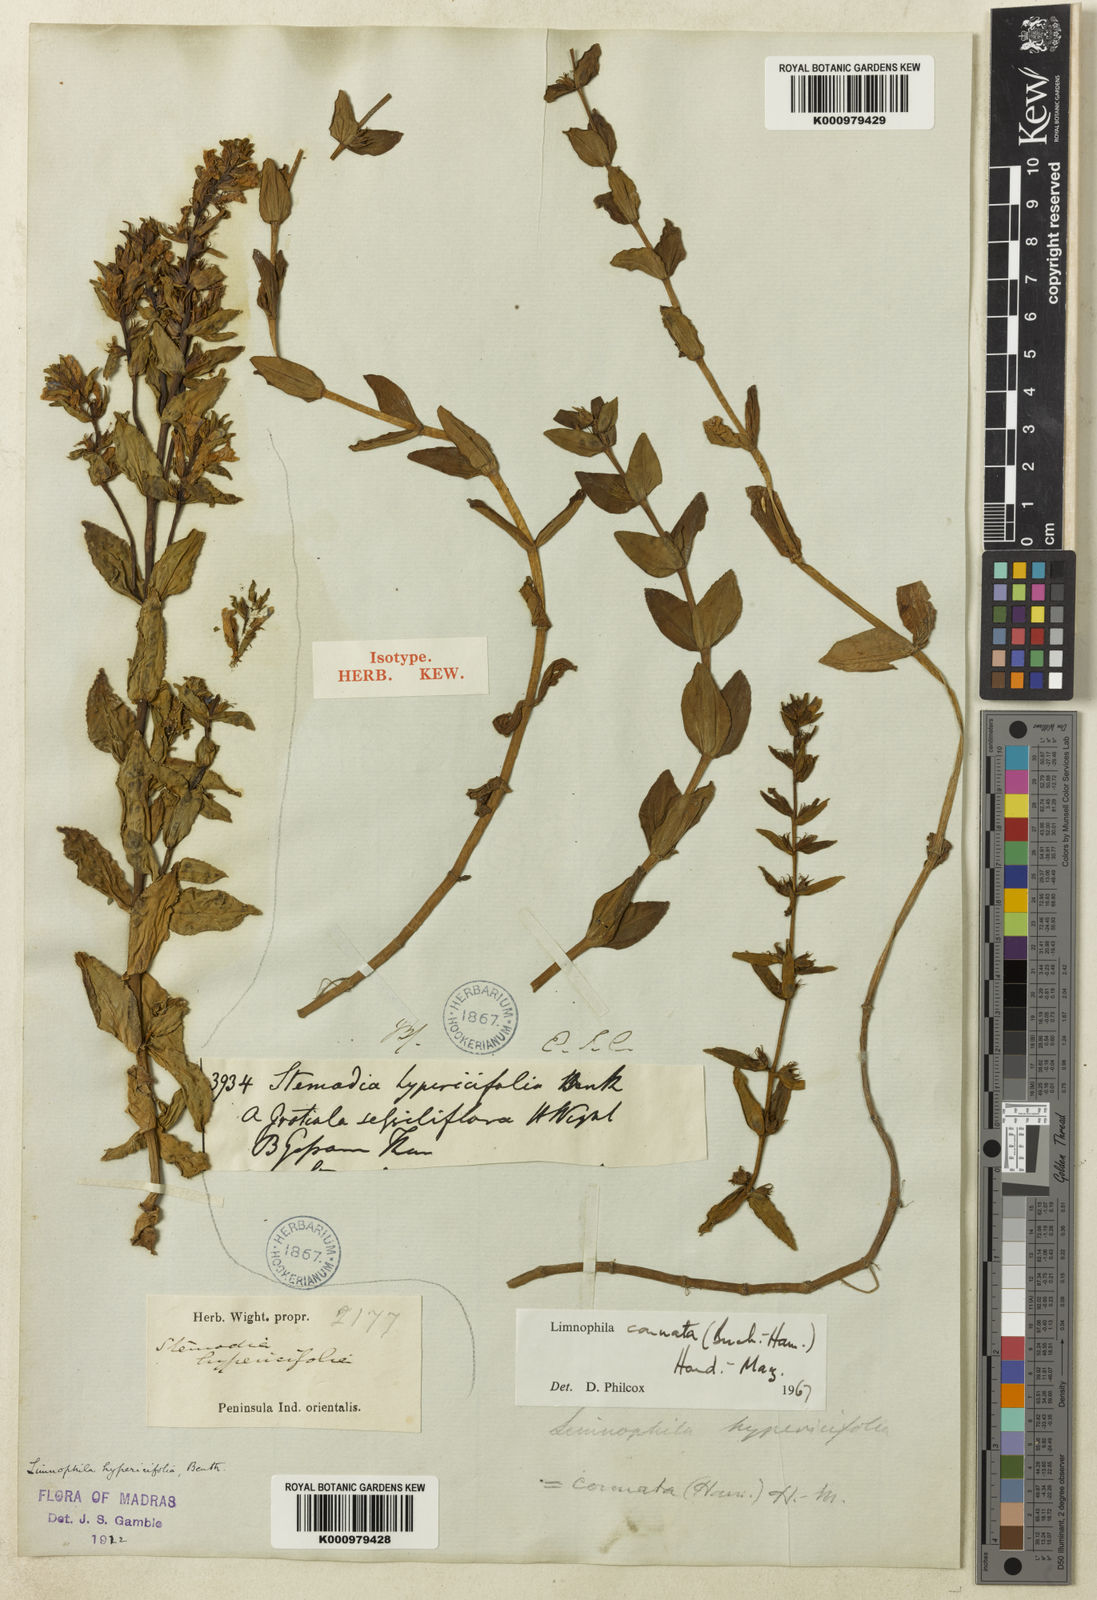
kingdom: Plantae
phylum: Tracheophyta
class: Magnoliopsida
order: Lamiales
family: Plantaginaceae
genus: Limnophila
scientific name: Limnophila connata
